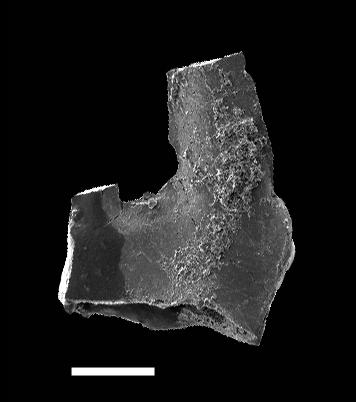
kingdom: Animalia
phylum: Chordata
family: Kockelellidae
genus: Kockelella
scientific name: Kockelella
